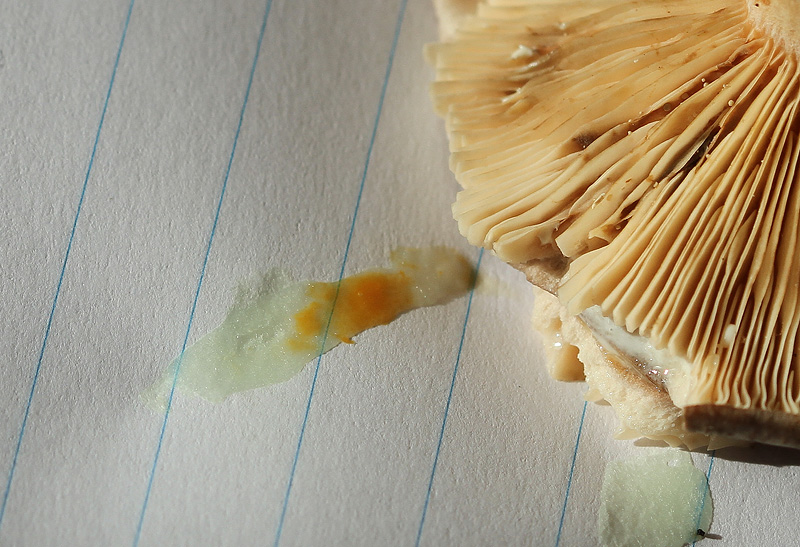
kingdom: Fungi
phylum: Basidiomycota
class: Agaricomycetes
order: Russulales
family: Russulaceae
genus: Lactarius
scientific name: Lactarius vietus
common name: violetgrå mælkehat
